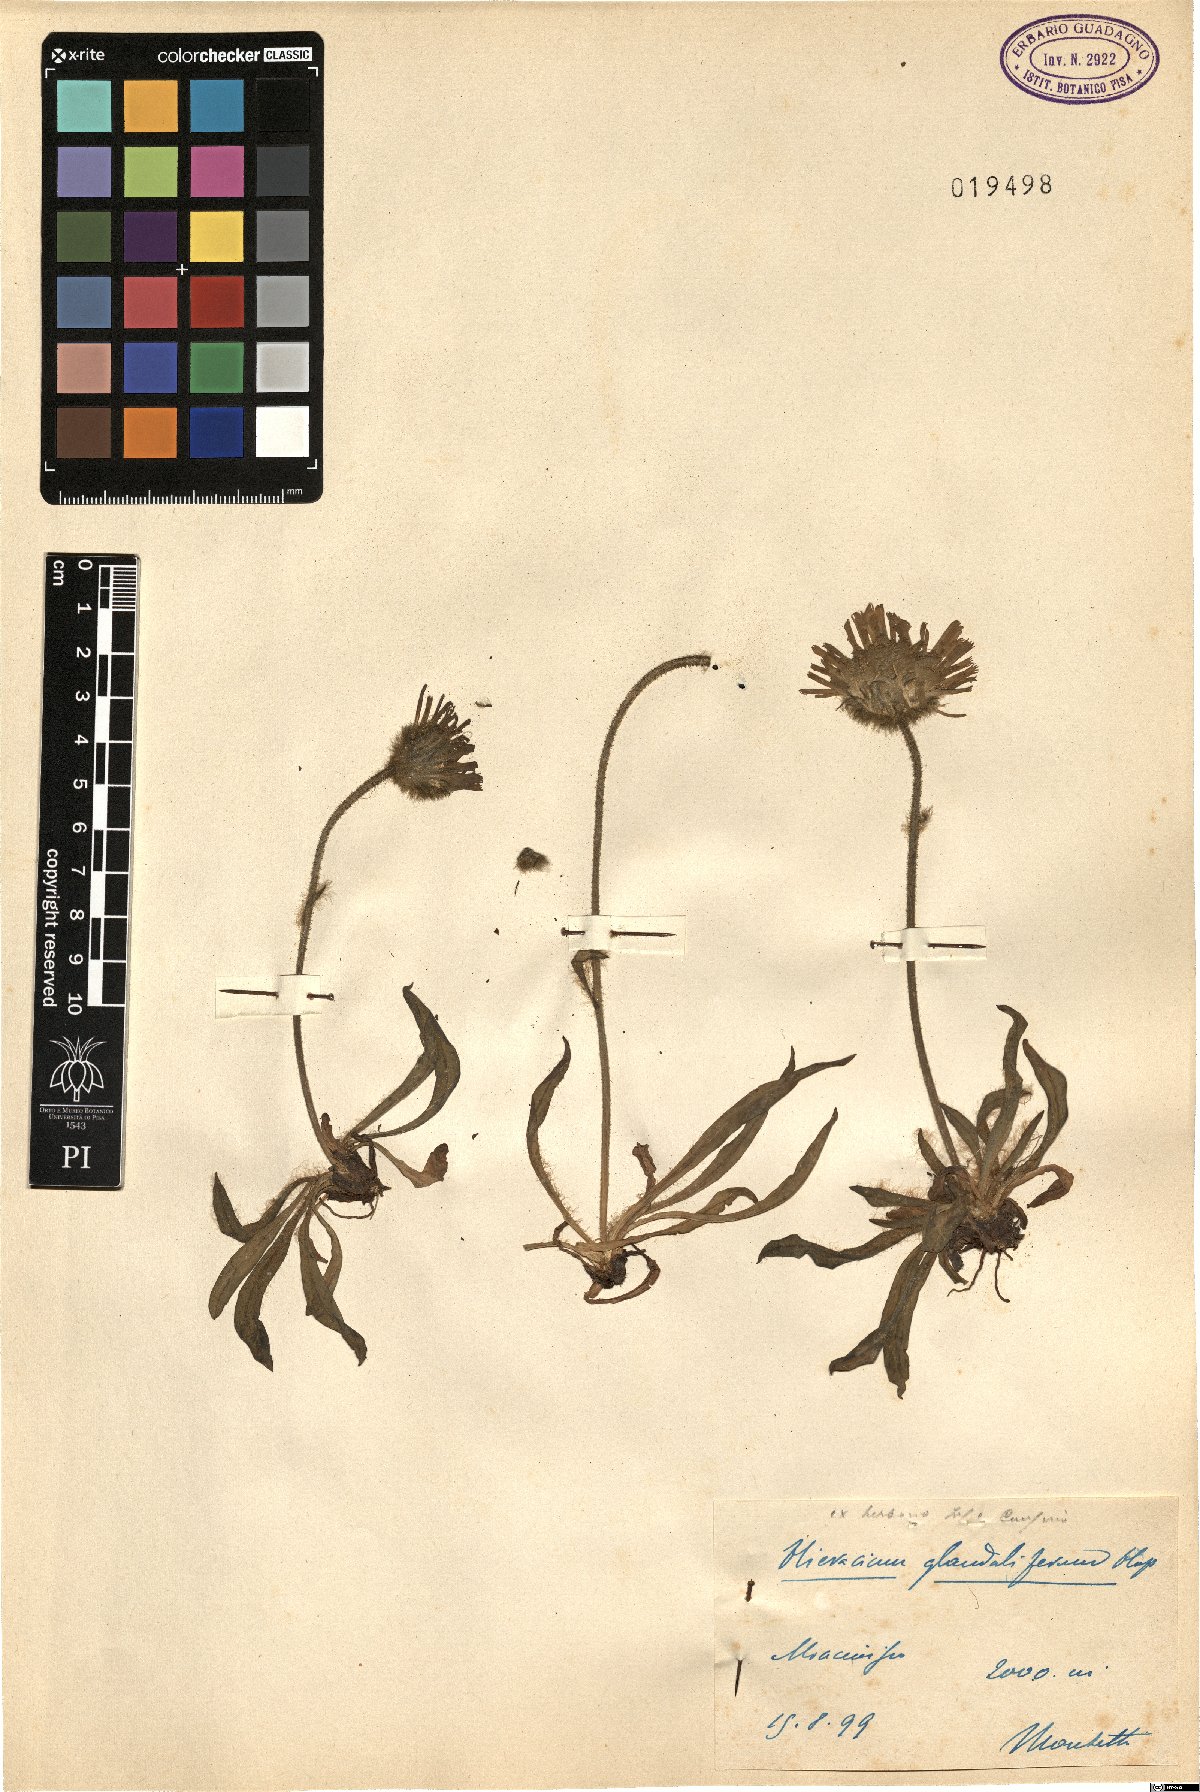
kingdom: Plantae
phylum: Tracheophyta
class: Magnoliopsida
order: Asterales
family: Asteraceae
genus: Hieracium
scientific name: Hieracium piliferum
